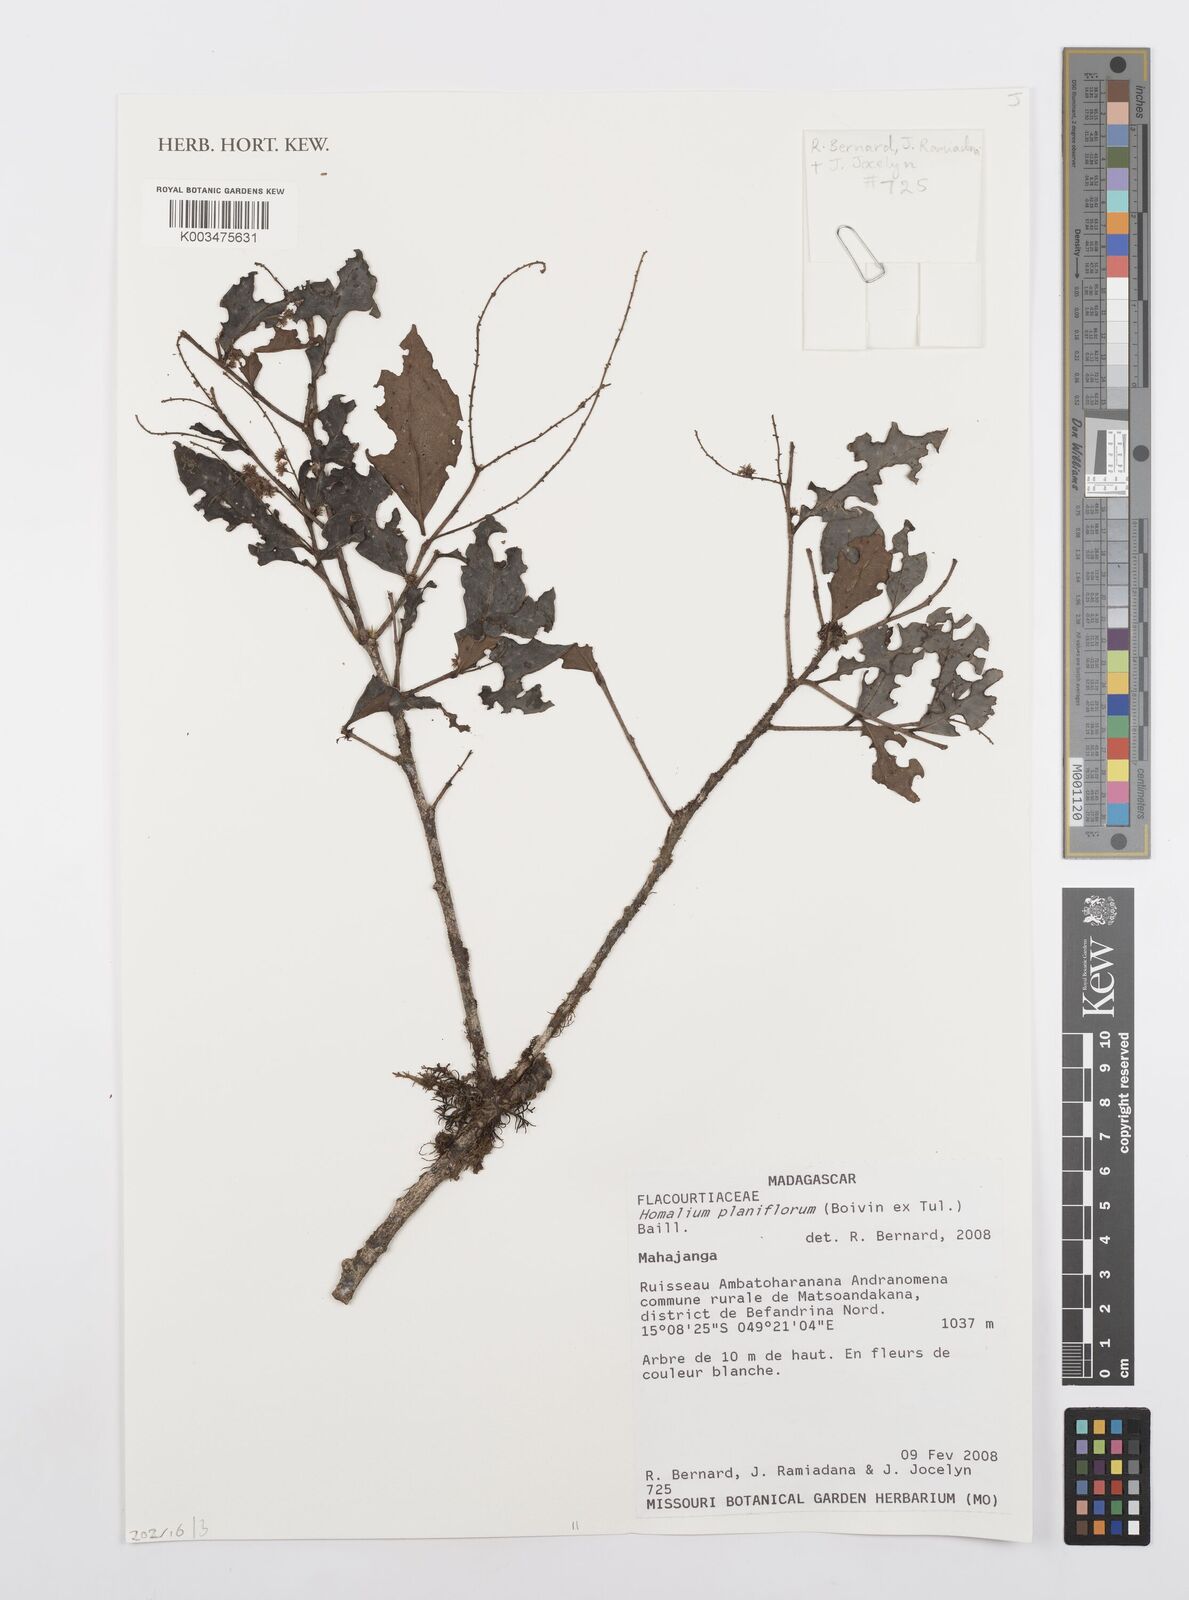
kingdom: Plantae
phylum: Tracheophyta
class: Magnoliopsida
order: Malpighiales
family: Salicaceae
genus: Homalium
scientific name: Homalium planiflorum
